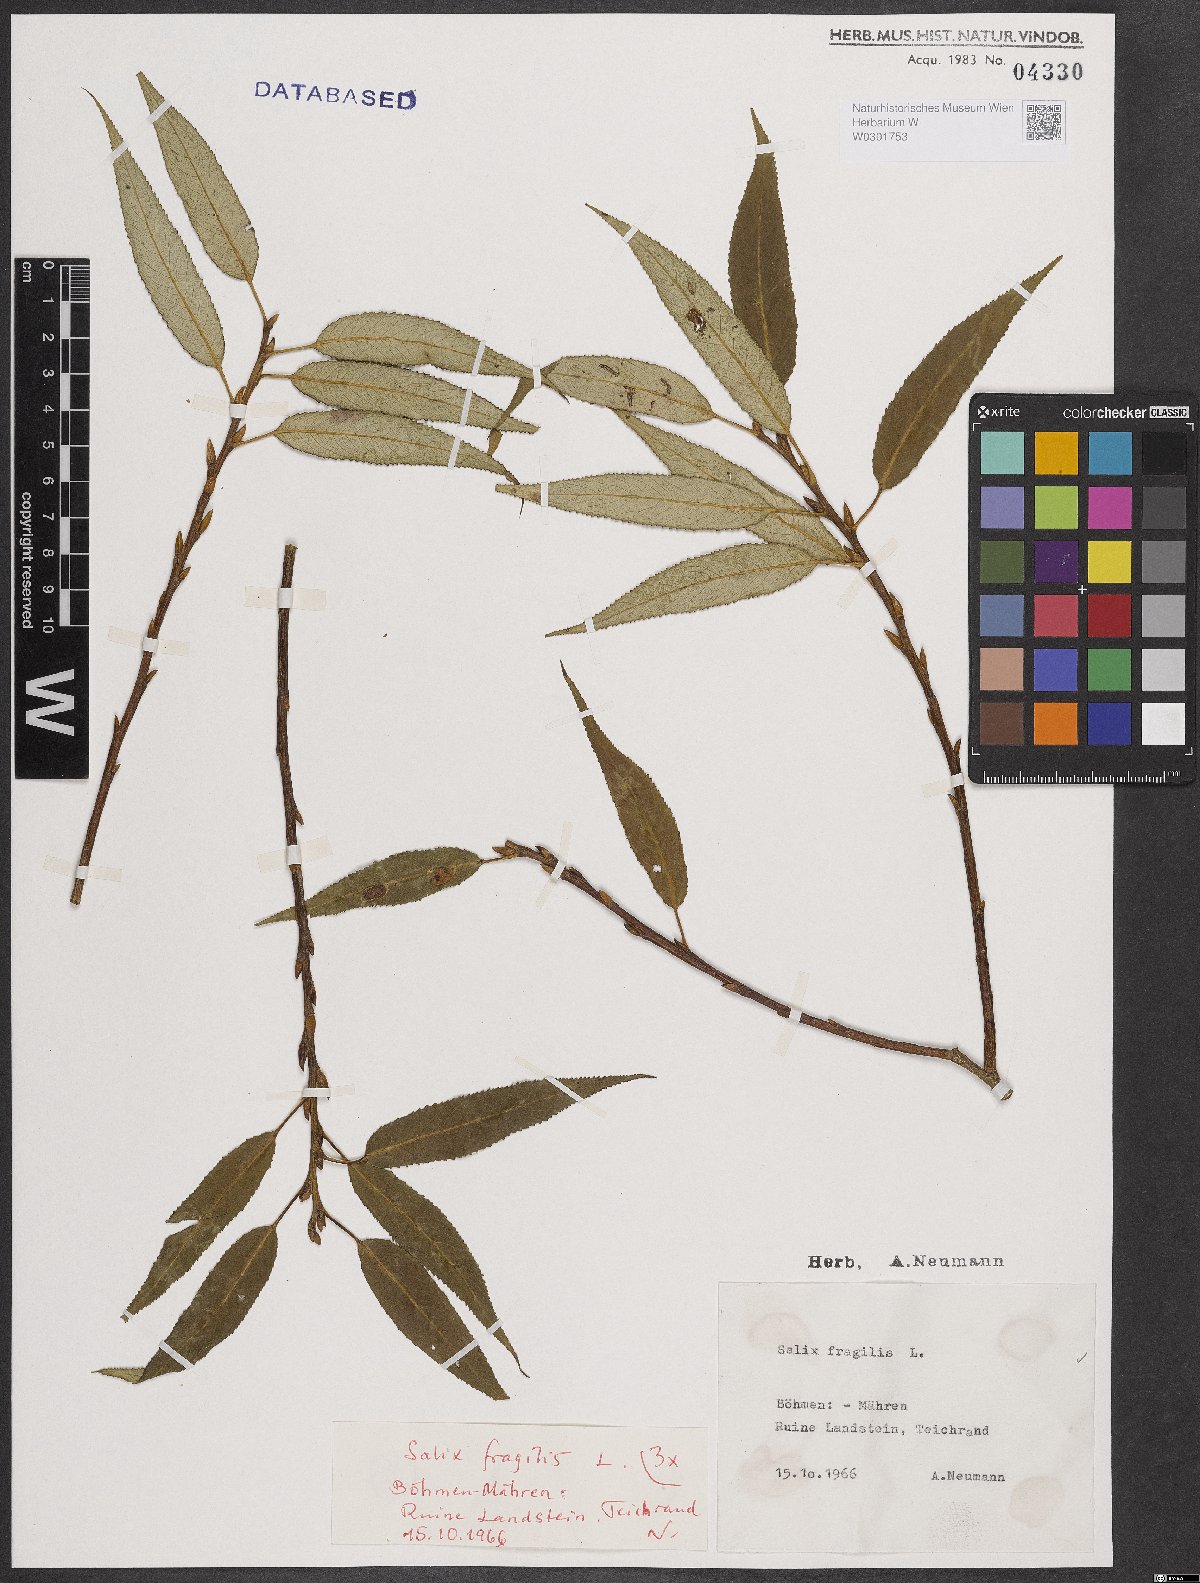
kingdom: Plantae
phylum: Tracheophyta
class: Magnoliopsida
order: Malpighiales
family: Salicaceae
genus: Salix
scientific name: Salix fragilis
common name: Crack willow
